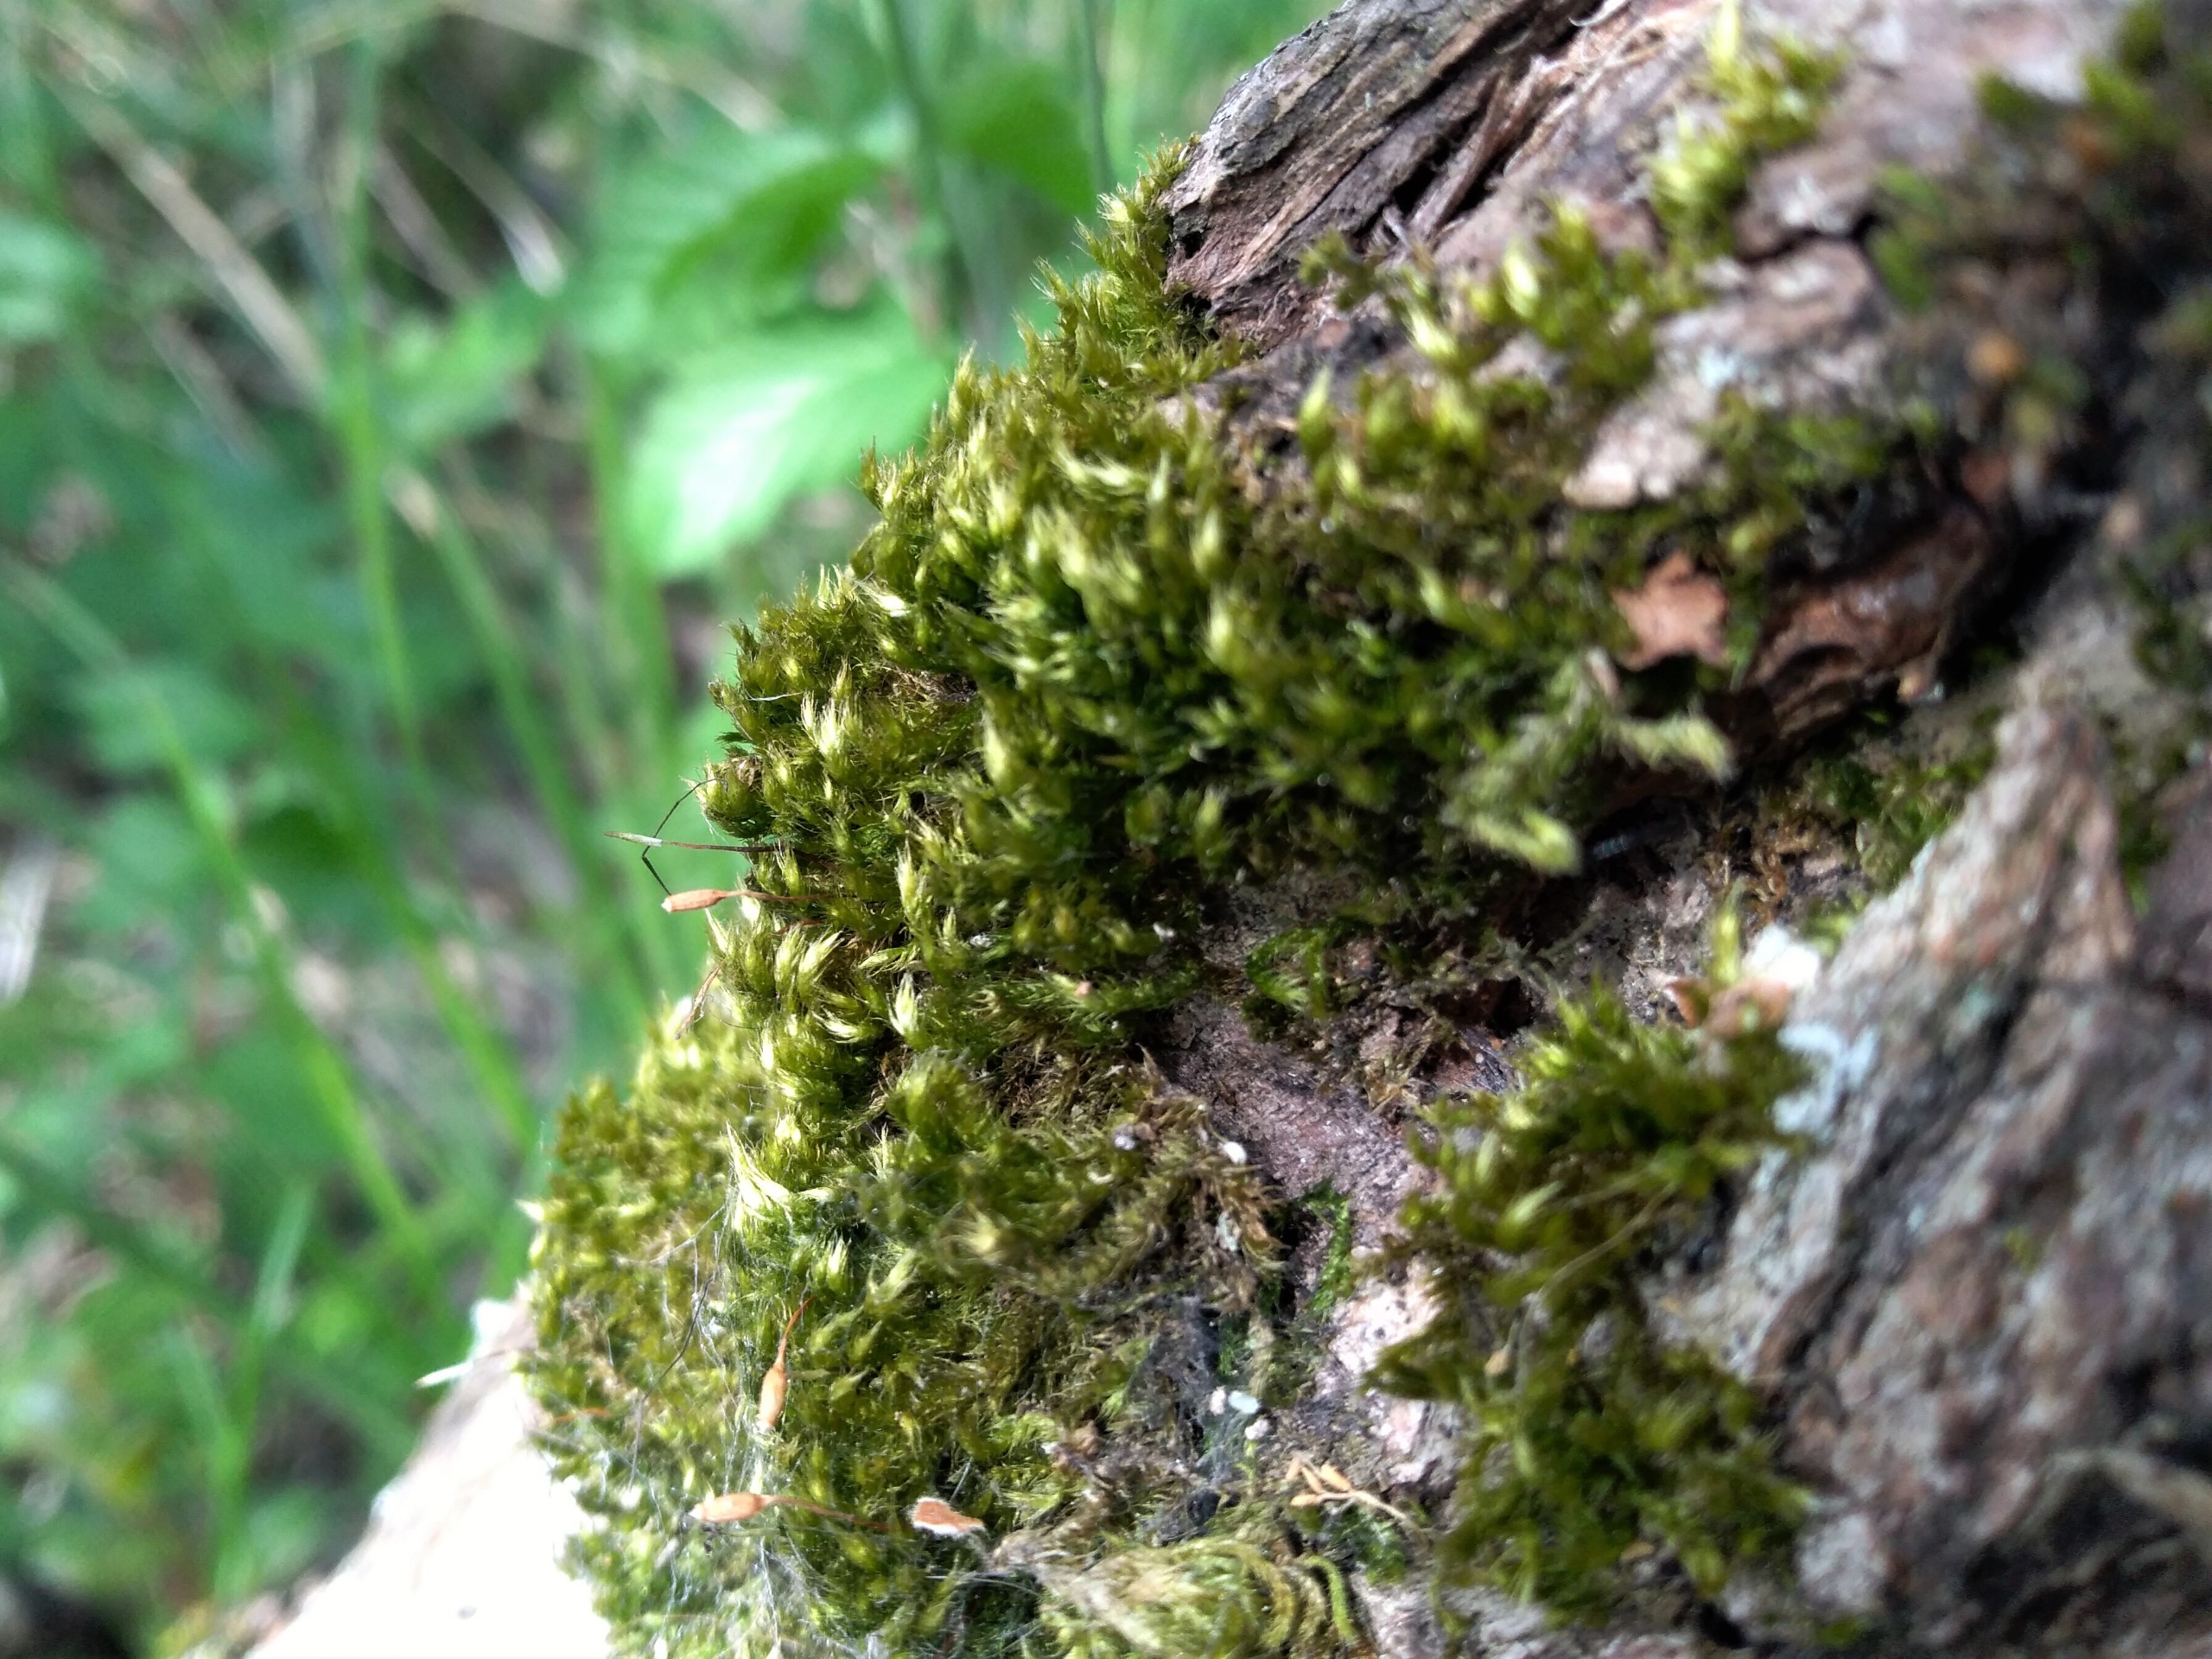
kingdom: Plantae
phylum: Bryophyta
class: Bryopsida
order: Hypnales
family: Pylaisiaceae
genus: Pylaisia
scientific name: Pylaisia polyantha
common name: Mangefrugtet aspemos
